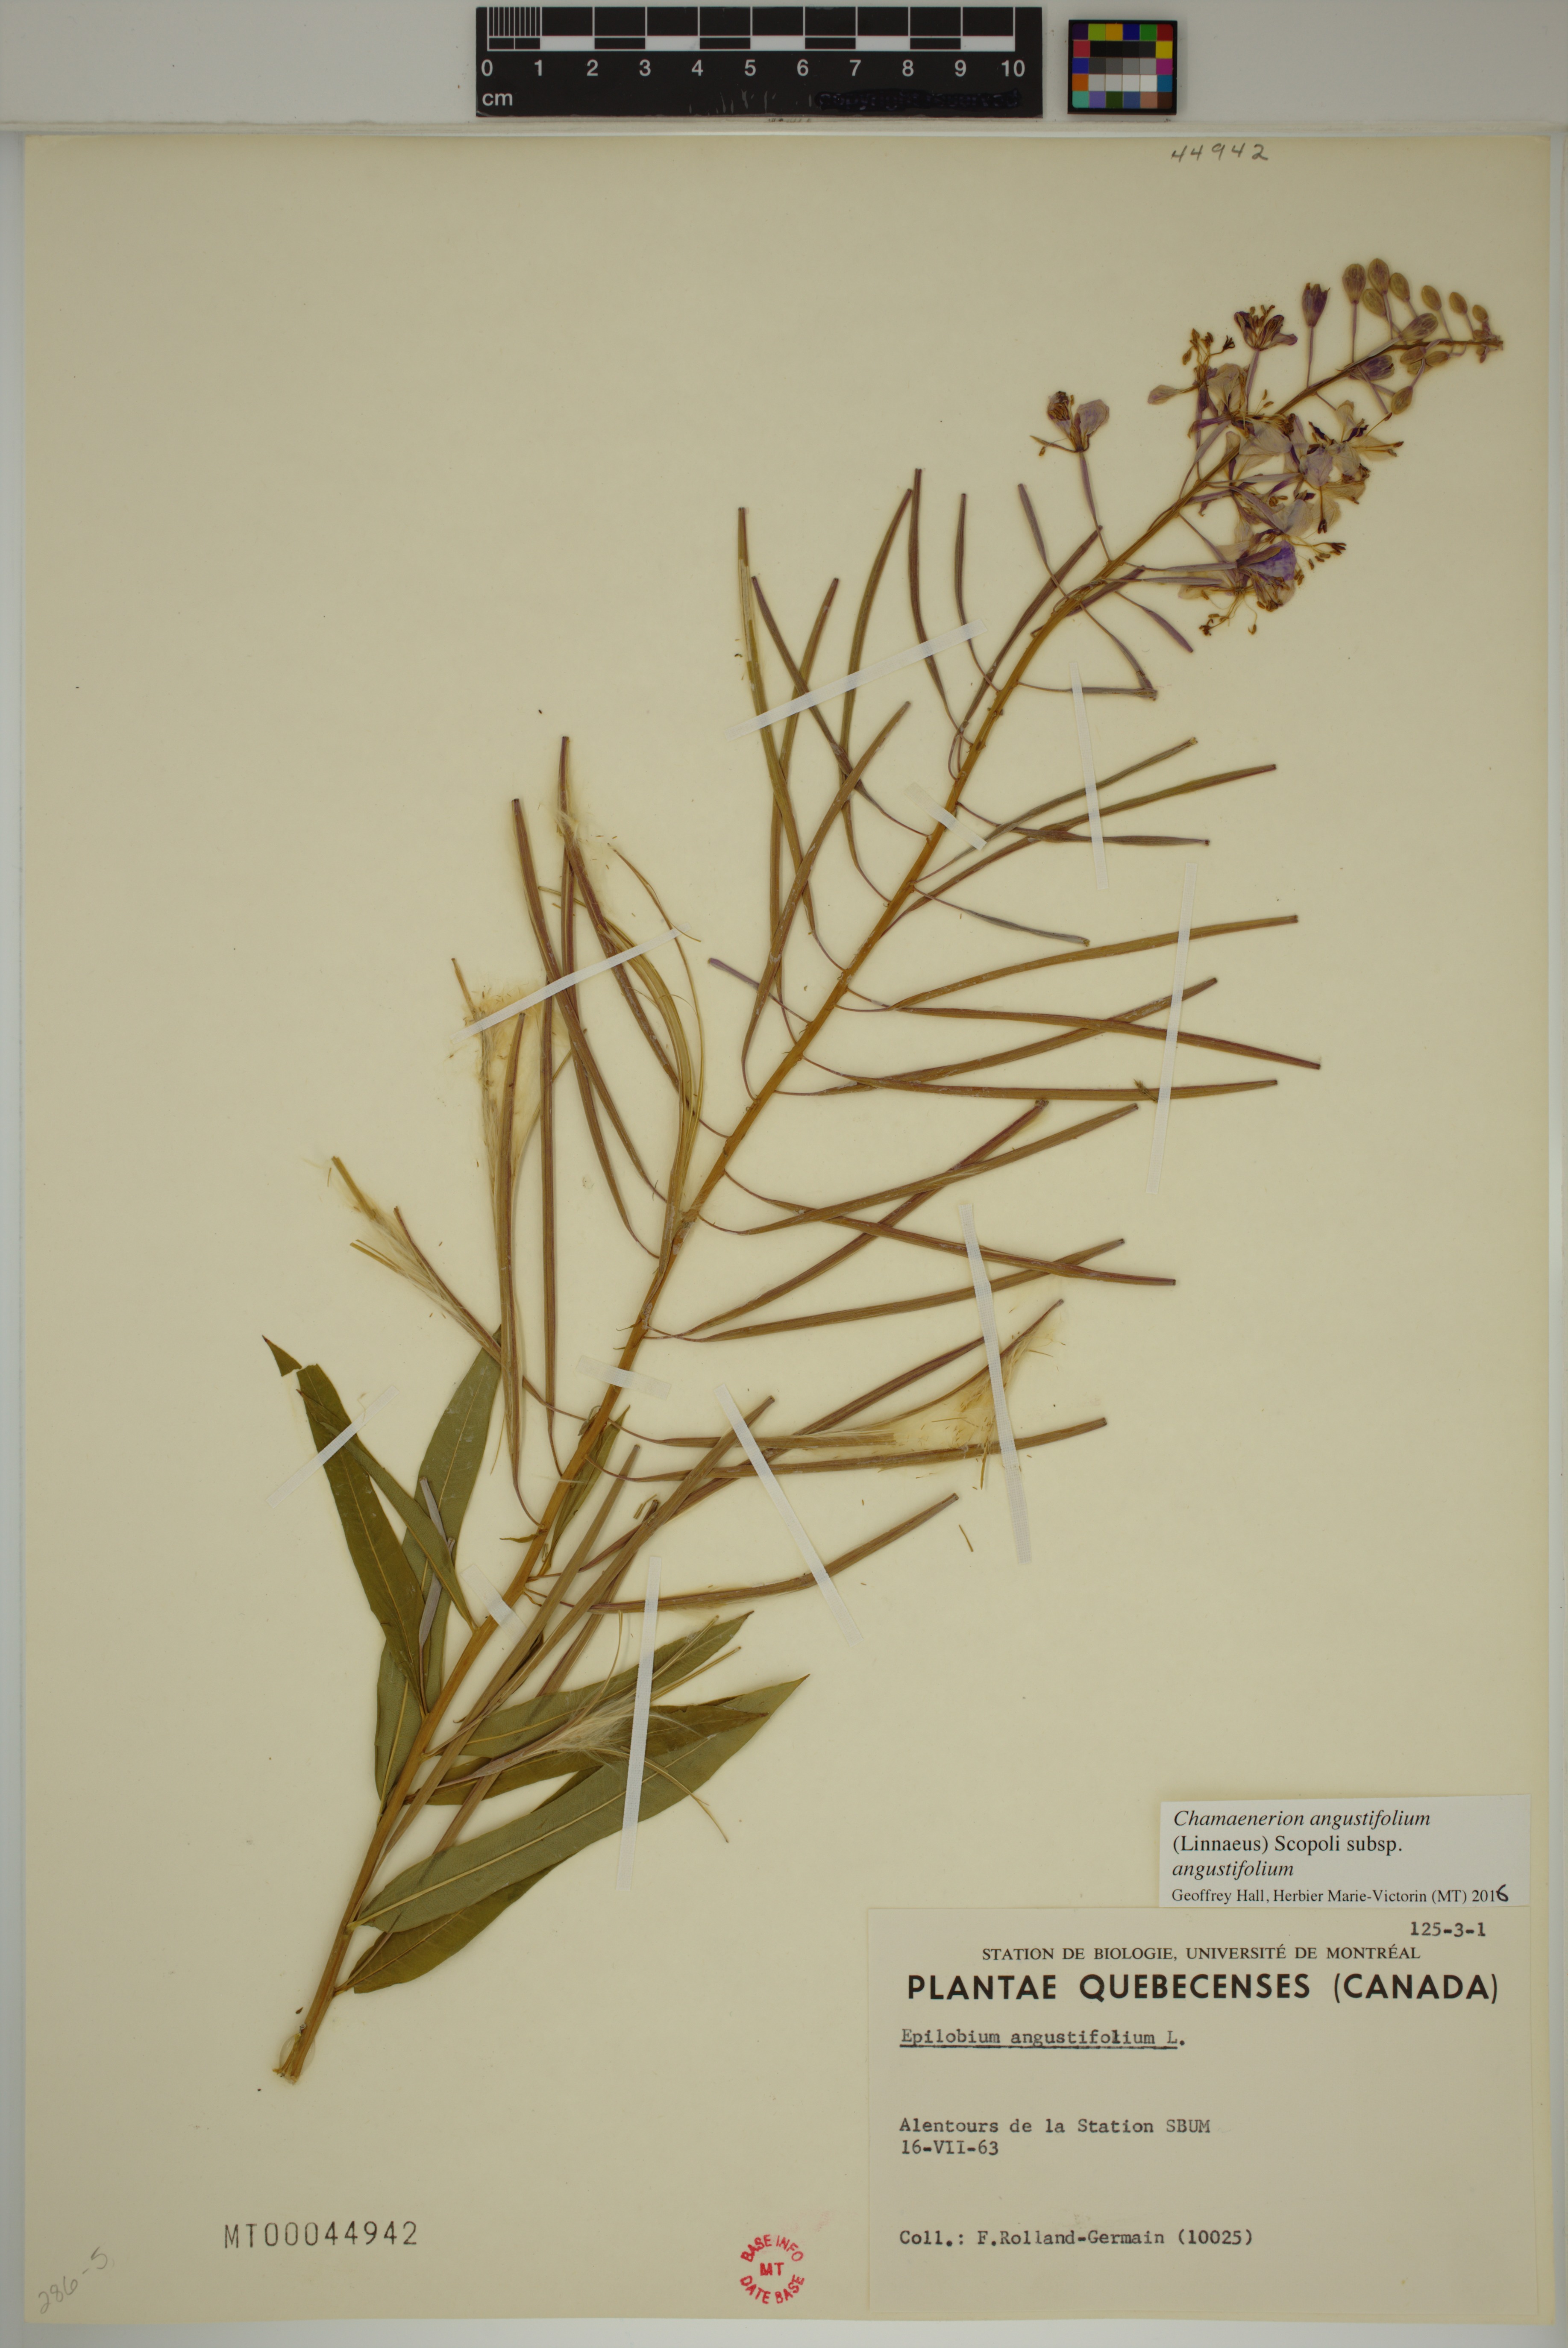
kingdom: Plantae
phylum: Tracheophyta
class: Magnoliopsida
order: Myrtales
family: Onagraceae
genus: Chamaenerion
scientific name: Chamaenerion angustifolium
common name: Fireweed
